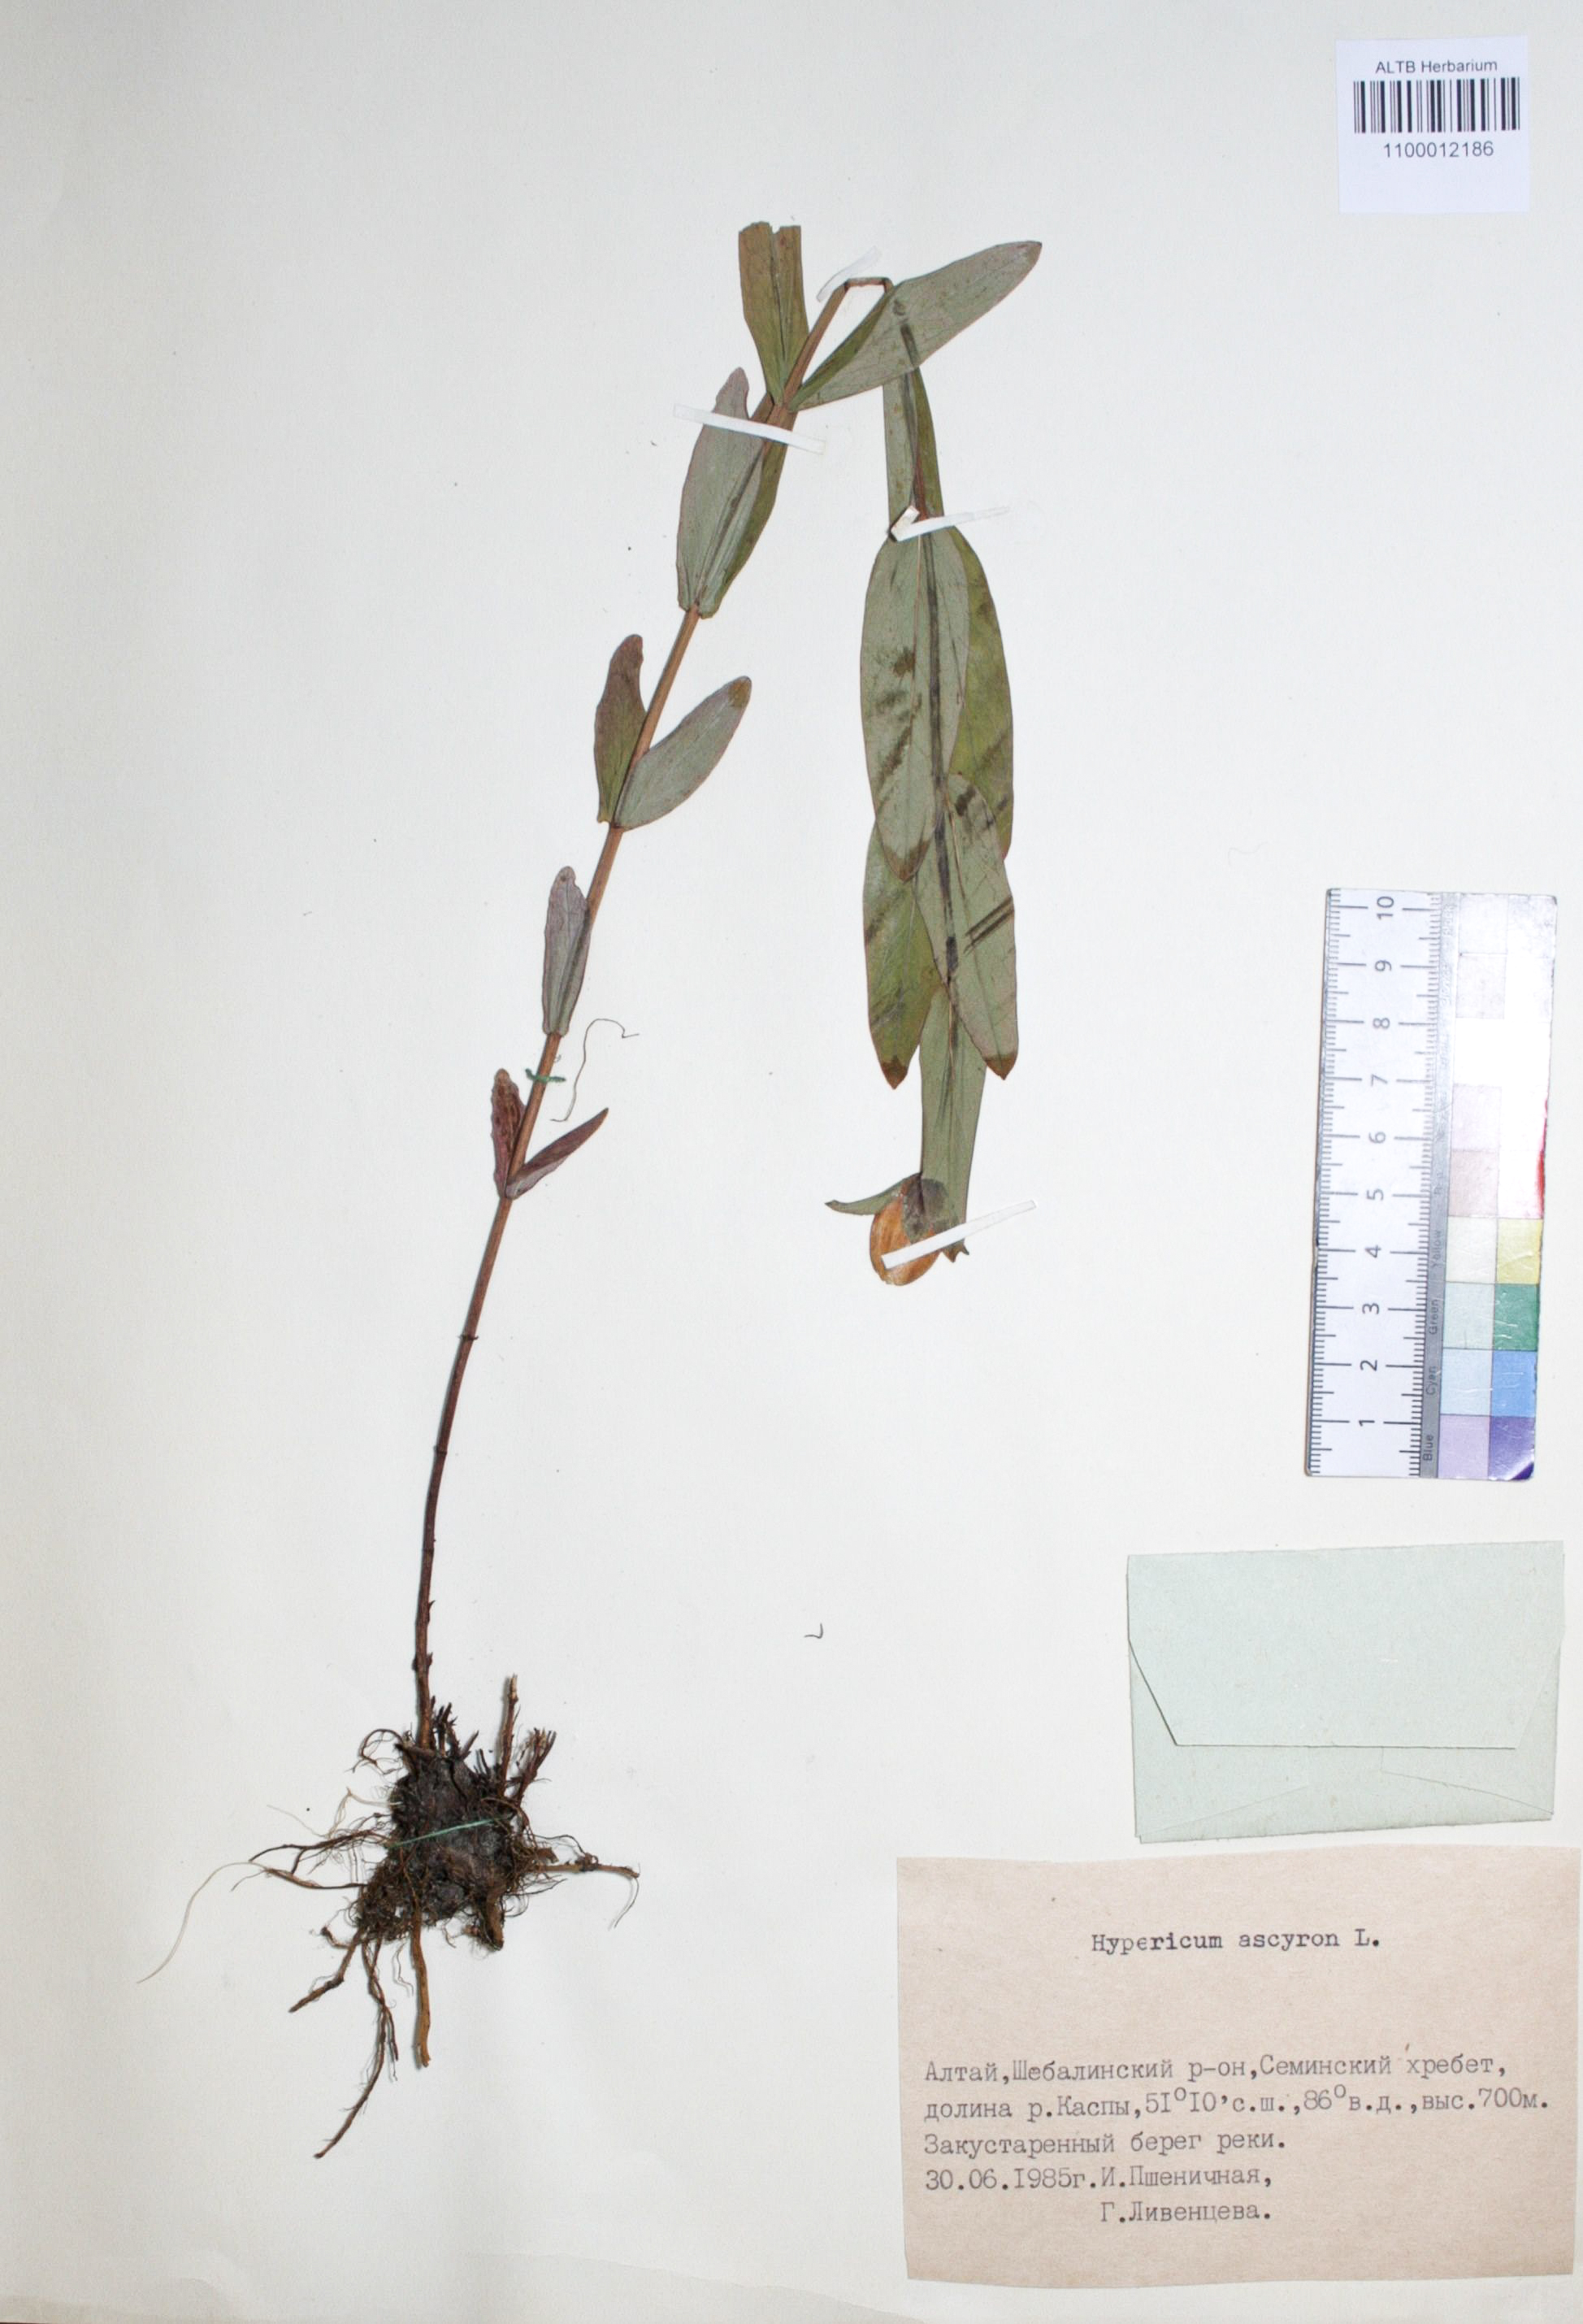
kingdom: Plantae
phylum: Tracheophyta
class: Magnoliopsida
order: Malpighiales
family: Hypericaceae
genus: Hypericum
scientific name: Hypericum ascyron
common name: Giant st. john's-wort
